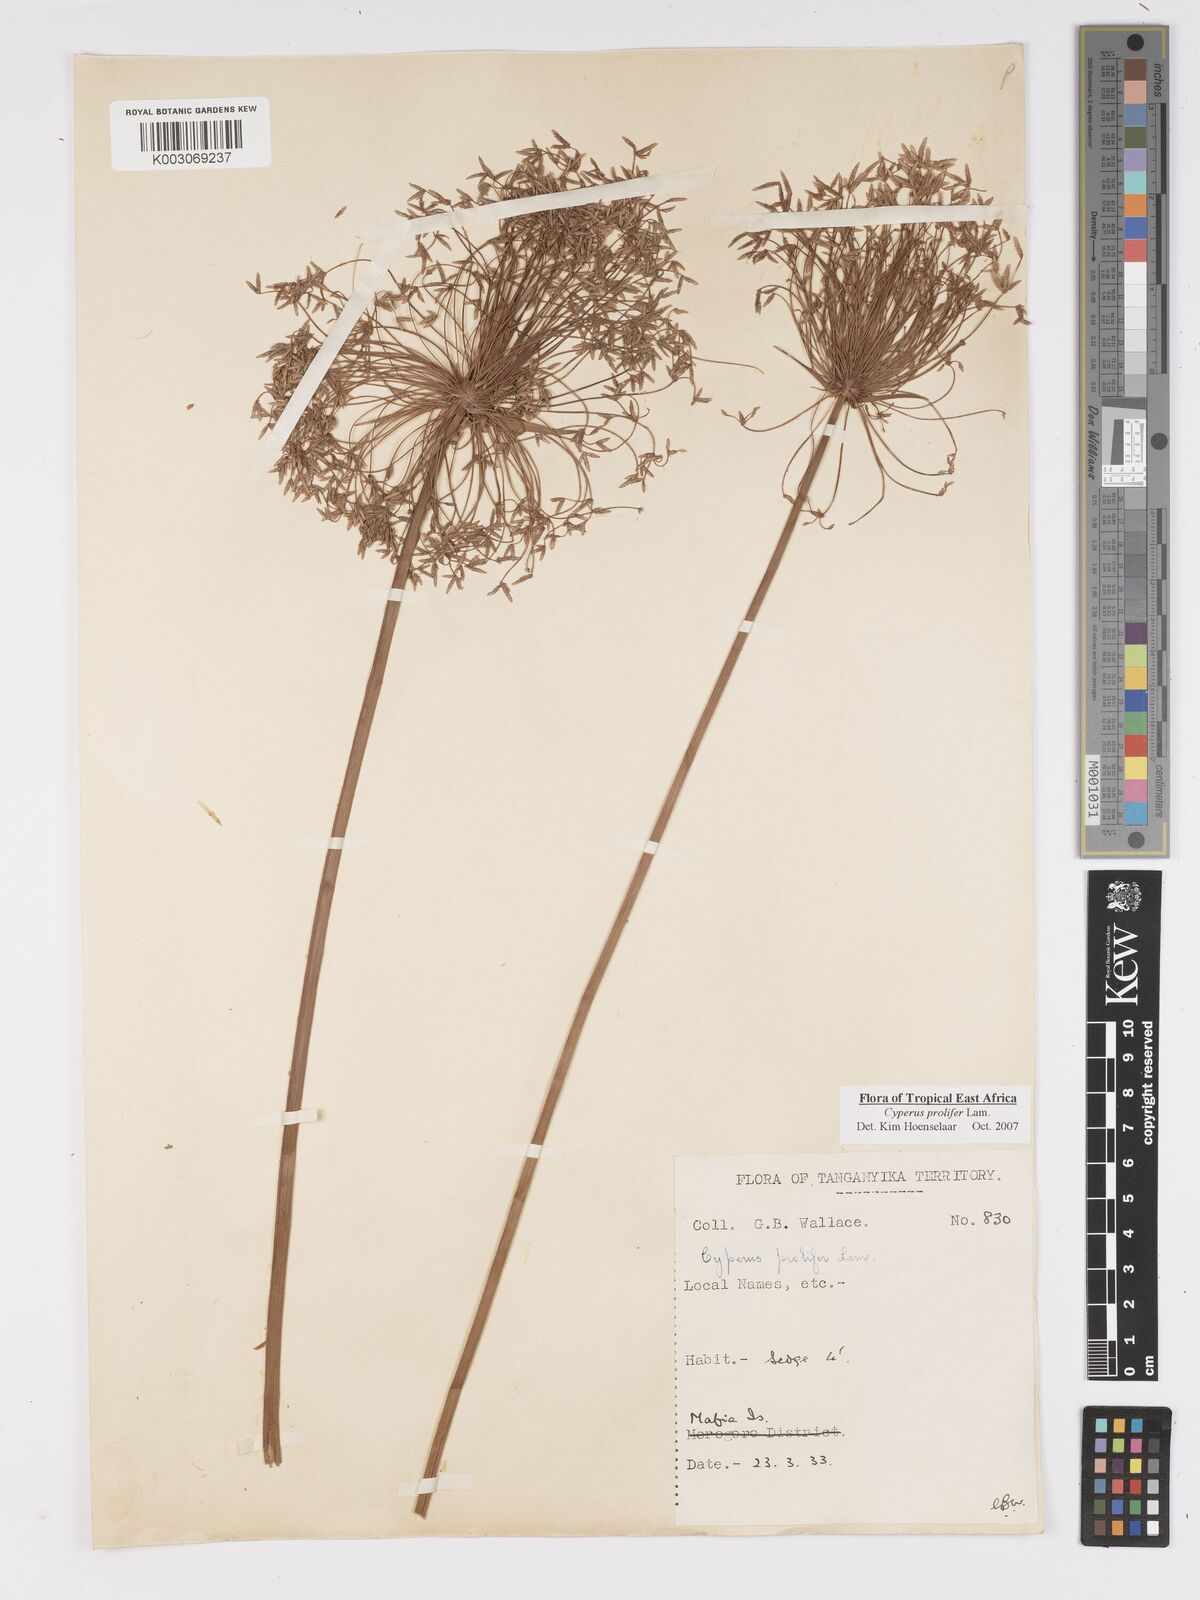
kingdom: Plantae
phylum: Tracheophyta
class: Liliopsida
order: Poales
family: Cyperaceae
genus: Cyperus
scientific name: Cyperus prolifer
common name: Miniature flatsedge
